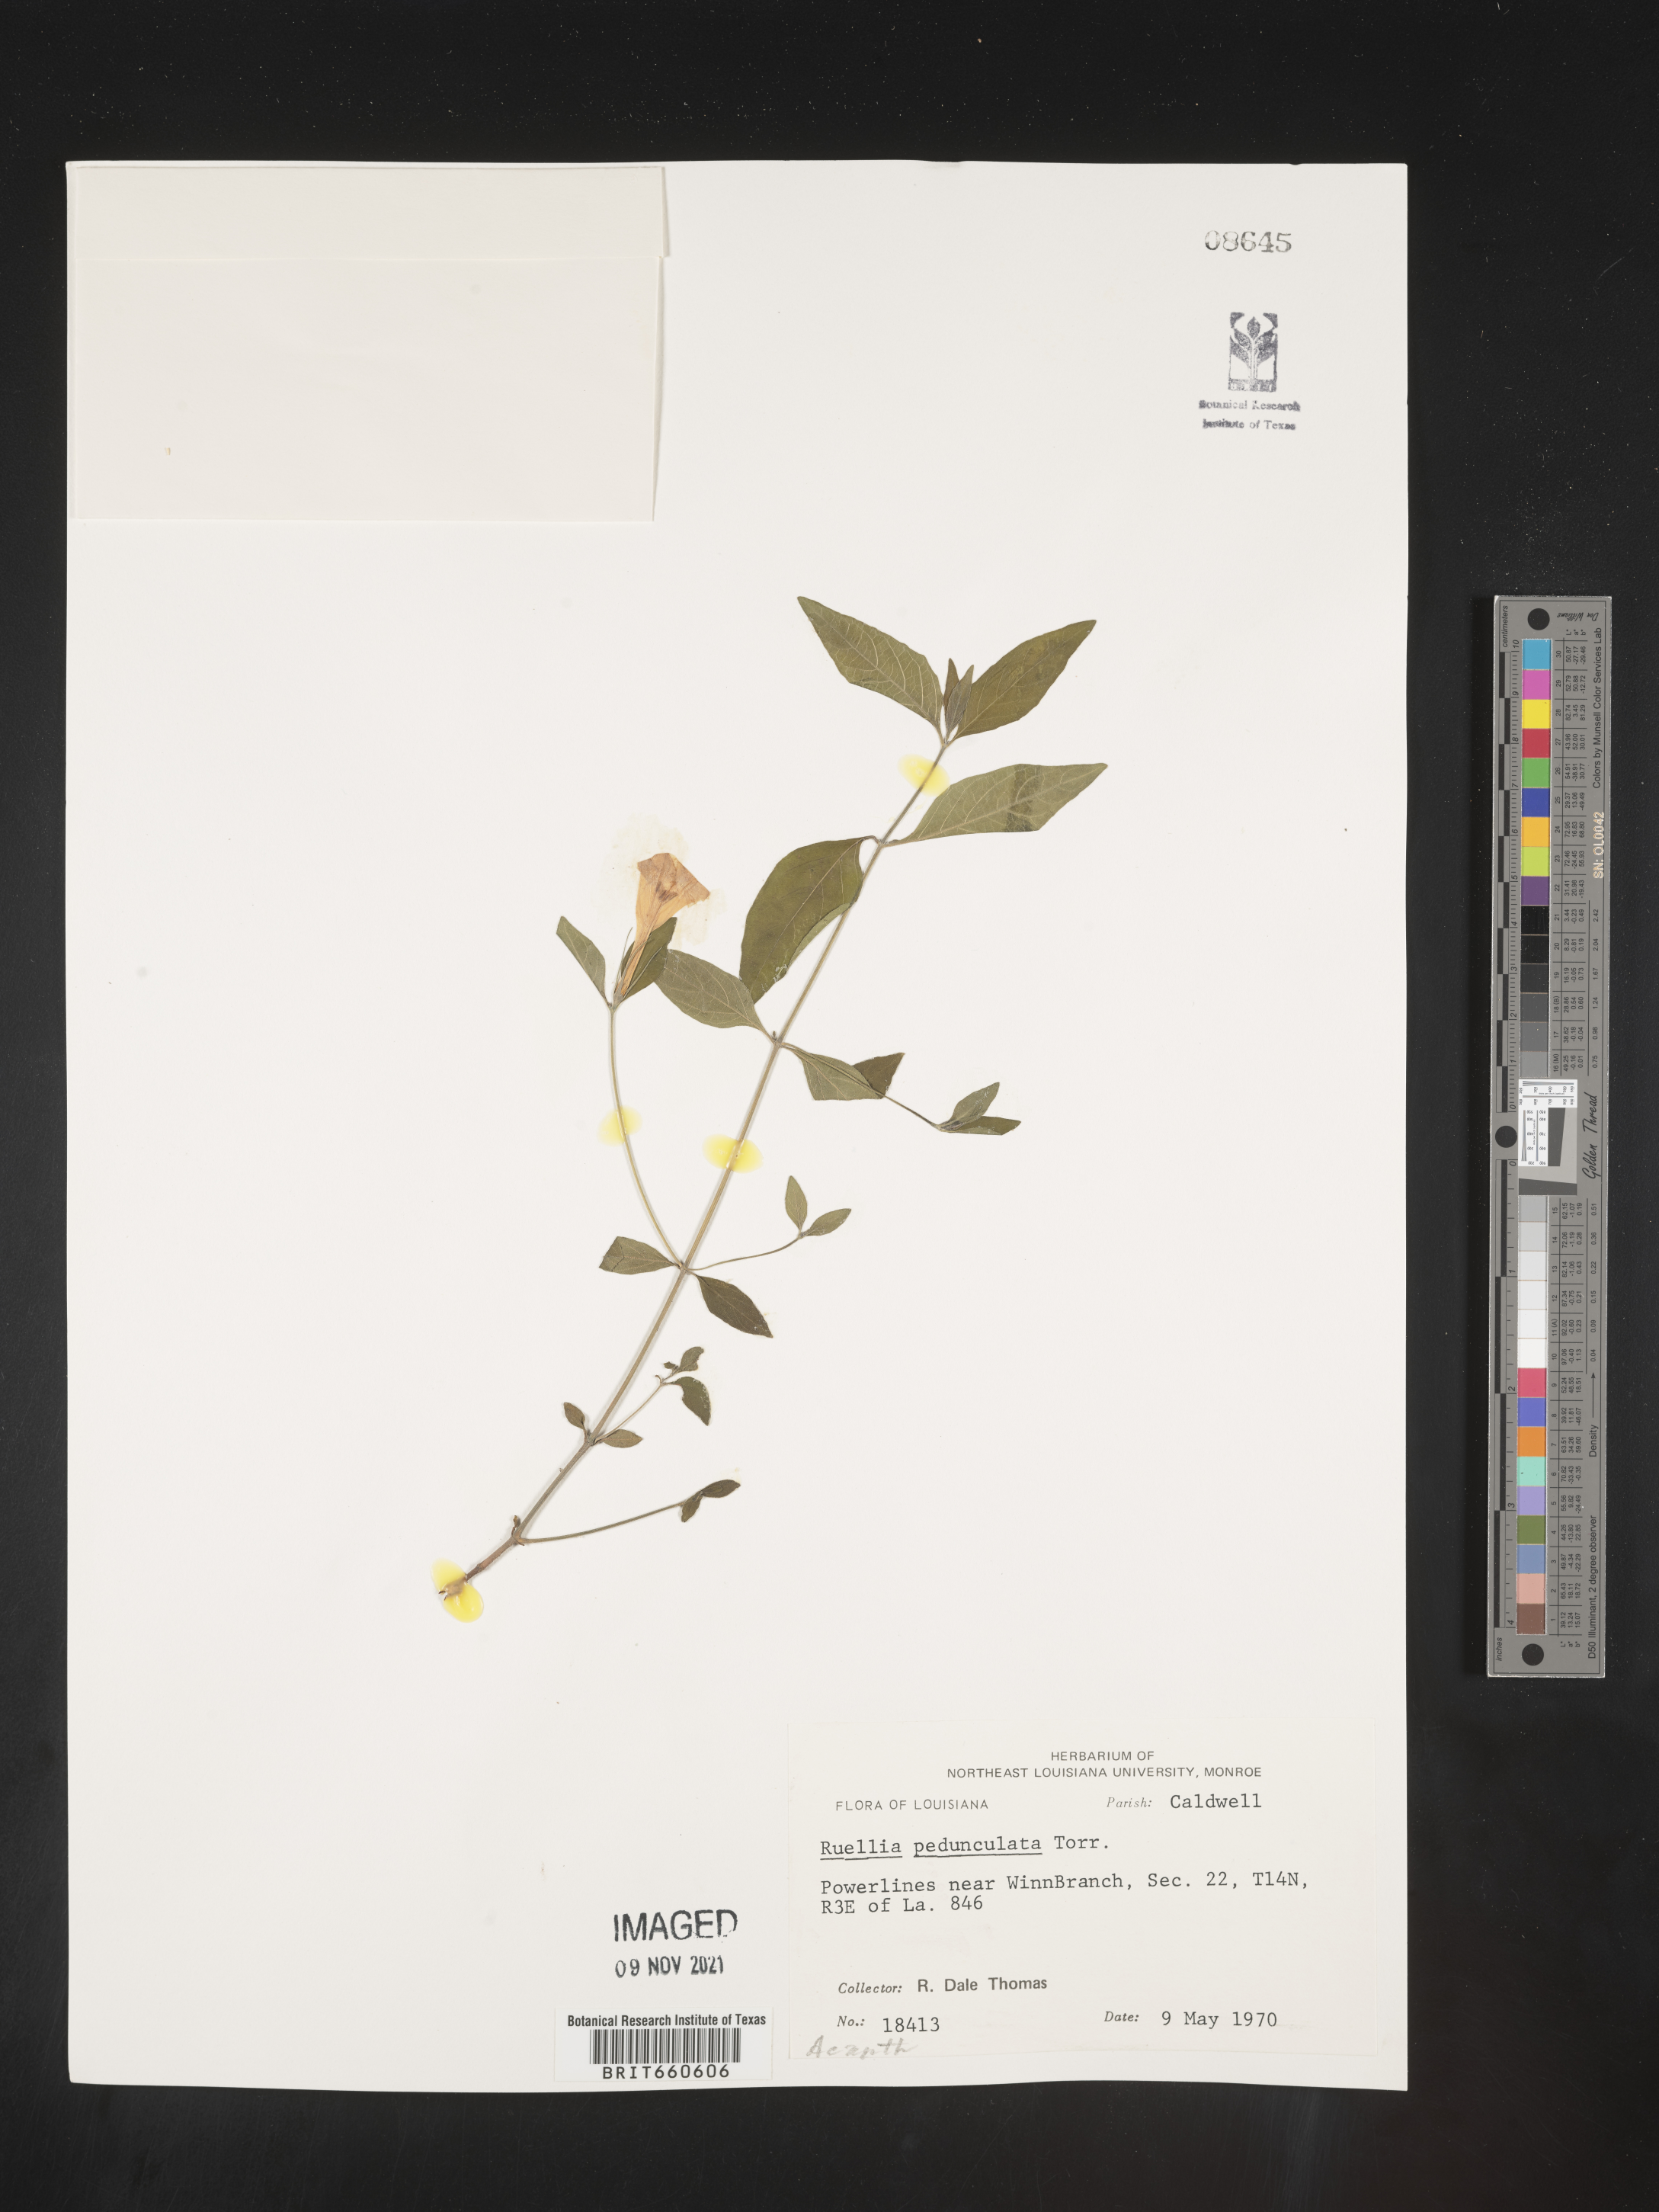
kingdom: Plantae
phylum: Tracheophyta
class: Magnoliopsida
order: Lamiales
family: Acanthaceae
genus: Ruellia
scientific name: Ruellia pedunculata
